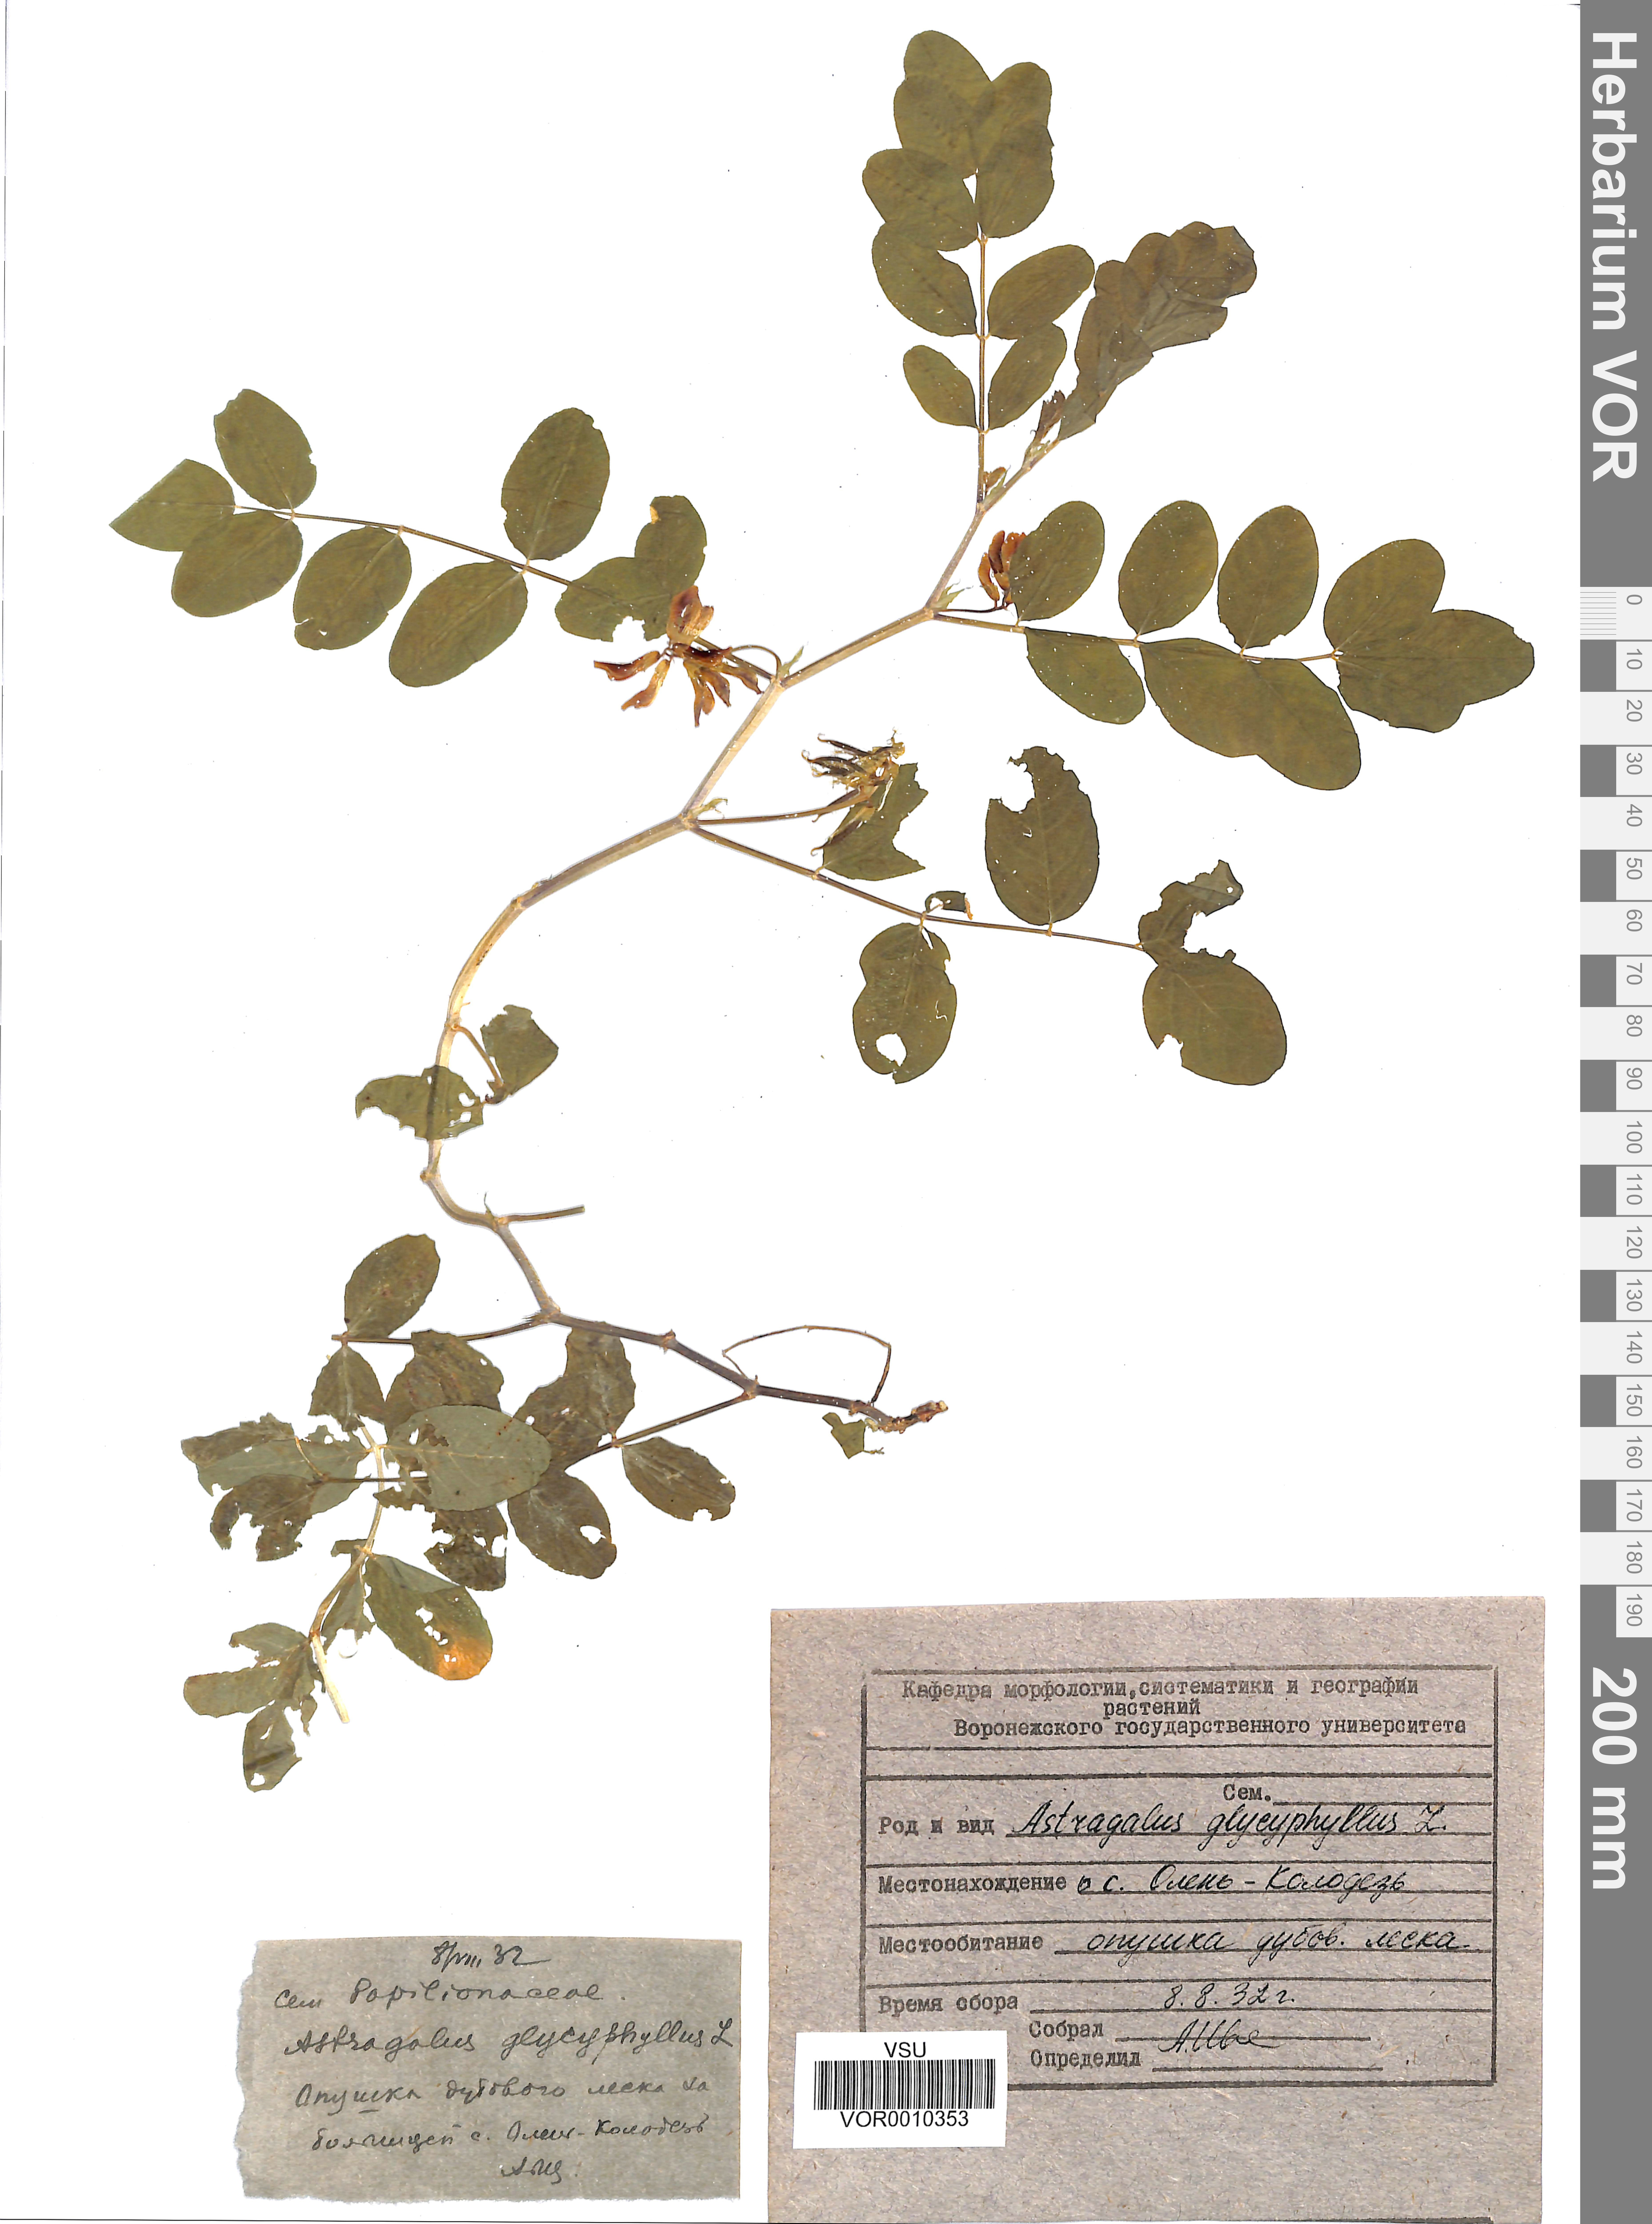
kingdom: Plantae
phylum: Tracheophyta
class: Magnoliopsida
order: Fabales
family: Fabaceae
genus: Astragalus
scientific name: Astragalus glycyphyllos
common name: Wild liquorice
